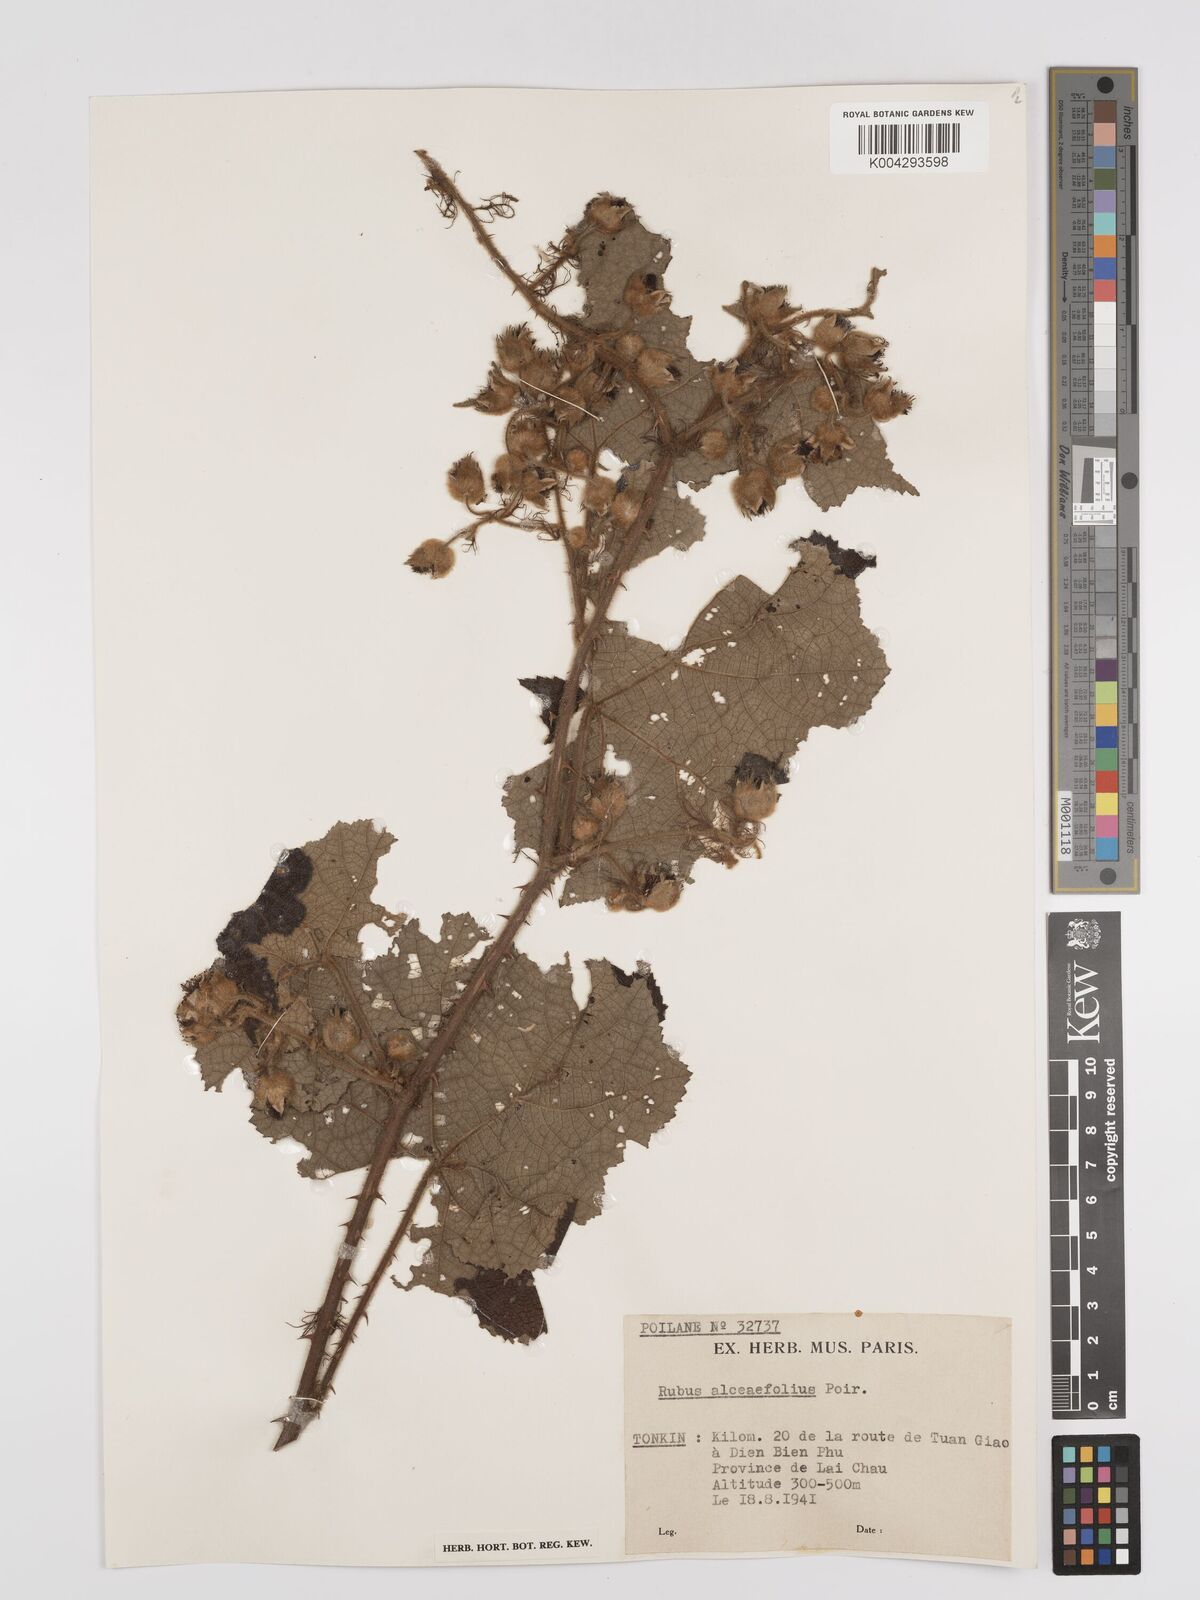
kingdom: Plantae
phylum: Tracheophyta
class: Magnoliopsida
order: Rosales
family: Rosaceae
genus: Rubus
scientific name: Rubus alceifolius
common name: Giant bramble
